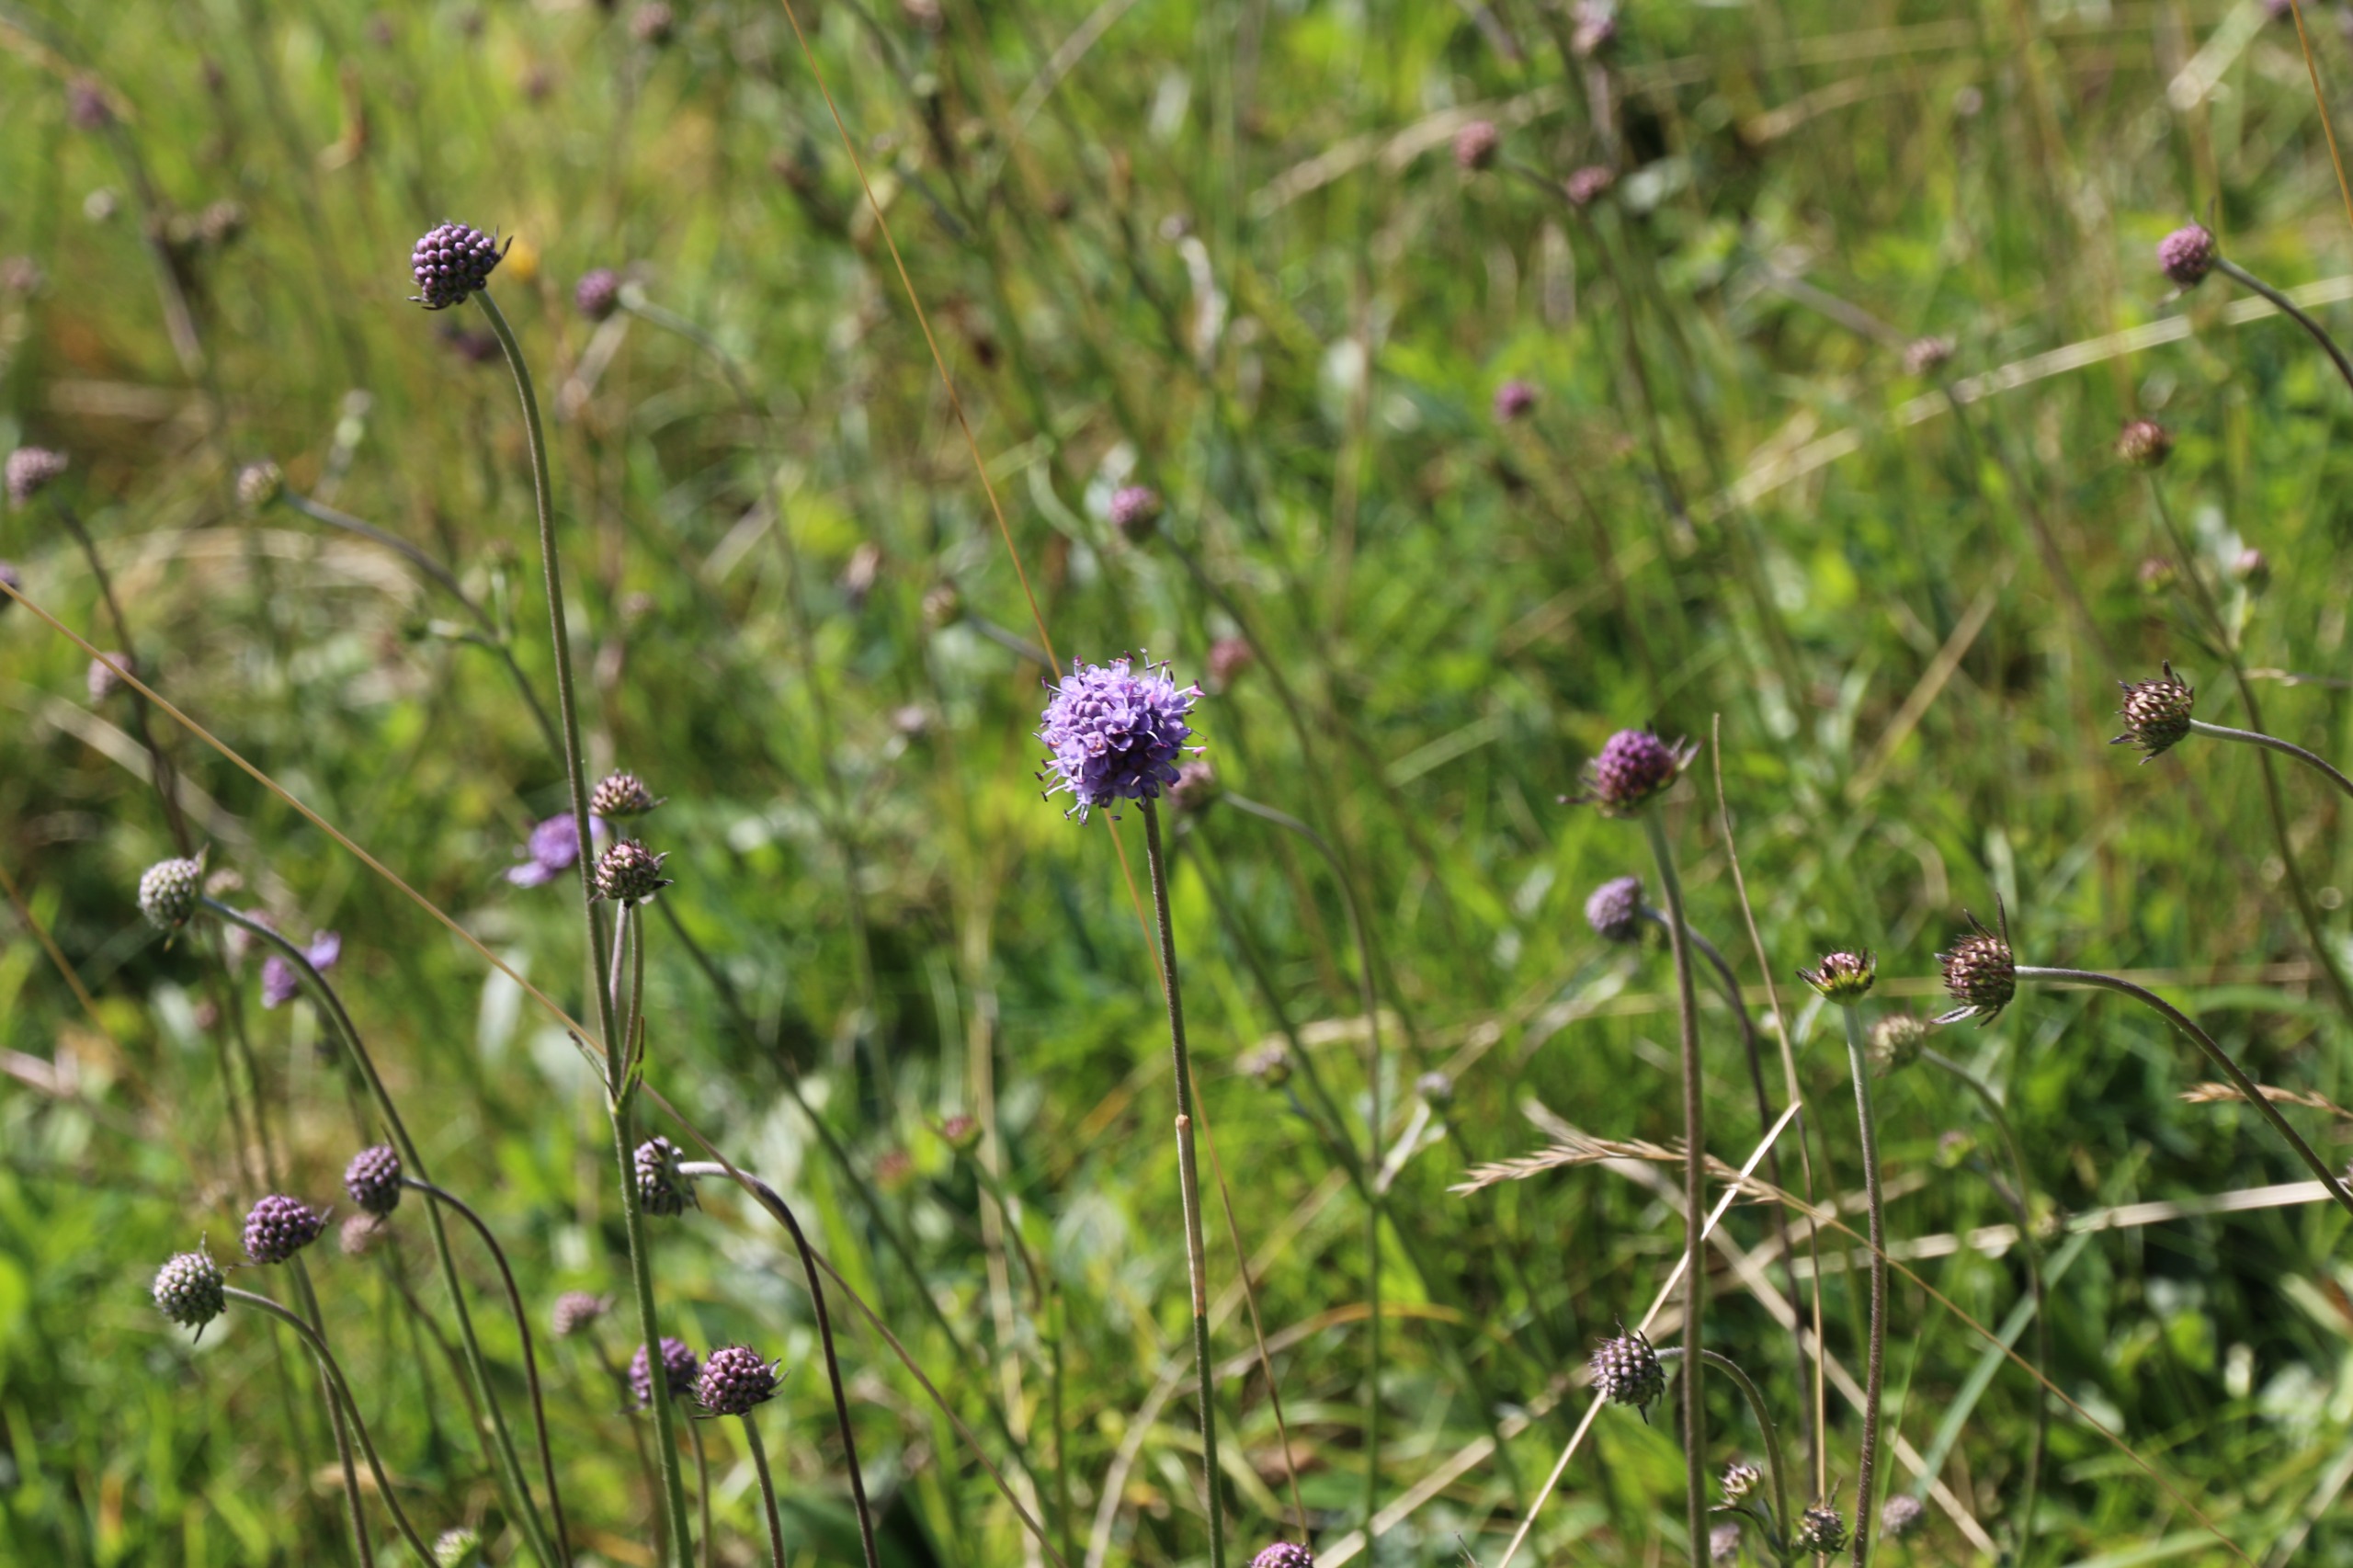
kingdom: Plantae
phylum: Tracheophyta
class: Magnoliopsida
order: Dipsacales
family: Caprifoliaceae
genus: Succisa
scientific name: Succisa pratensis
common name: Djævelsbid
